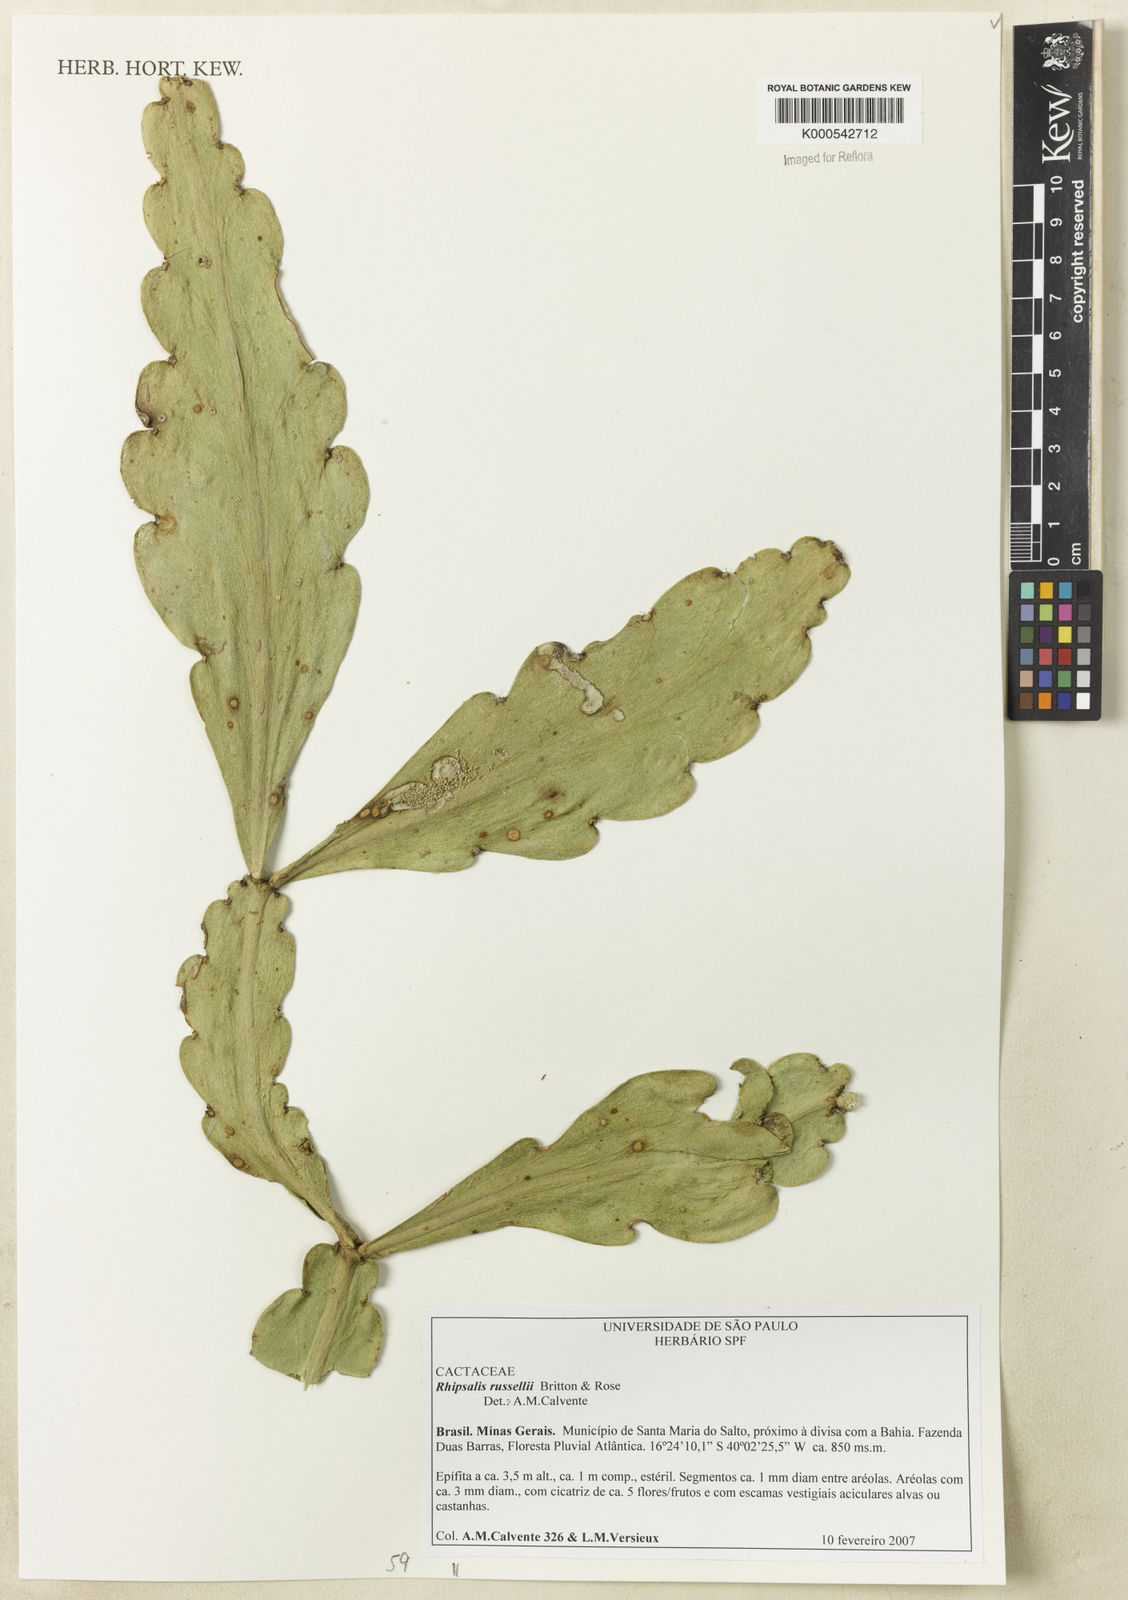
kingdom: Plantae
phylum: Tracheophyta
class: Magnoliopsida
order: Caryophyllales
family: Cactaceae
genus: Rhipsalis
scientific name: Rhipsalis russellii
